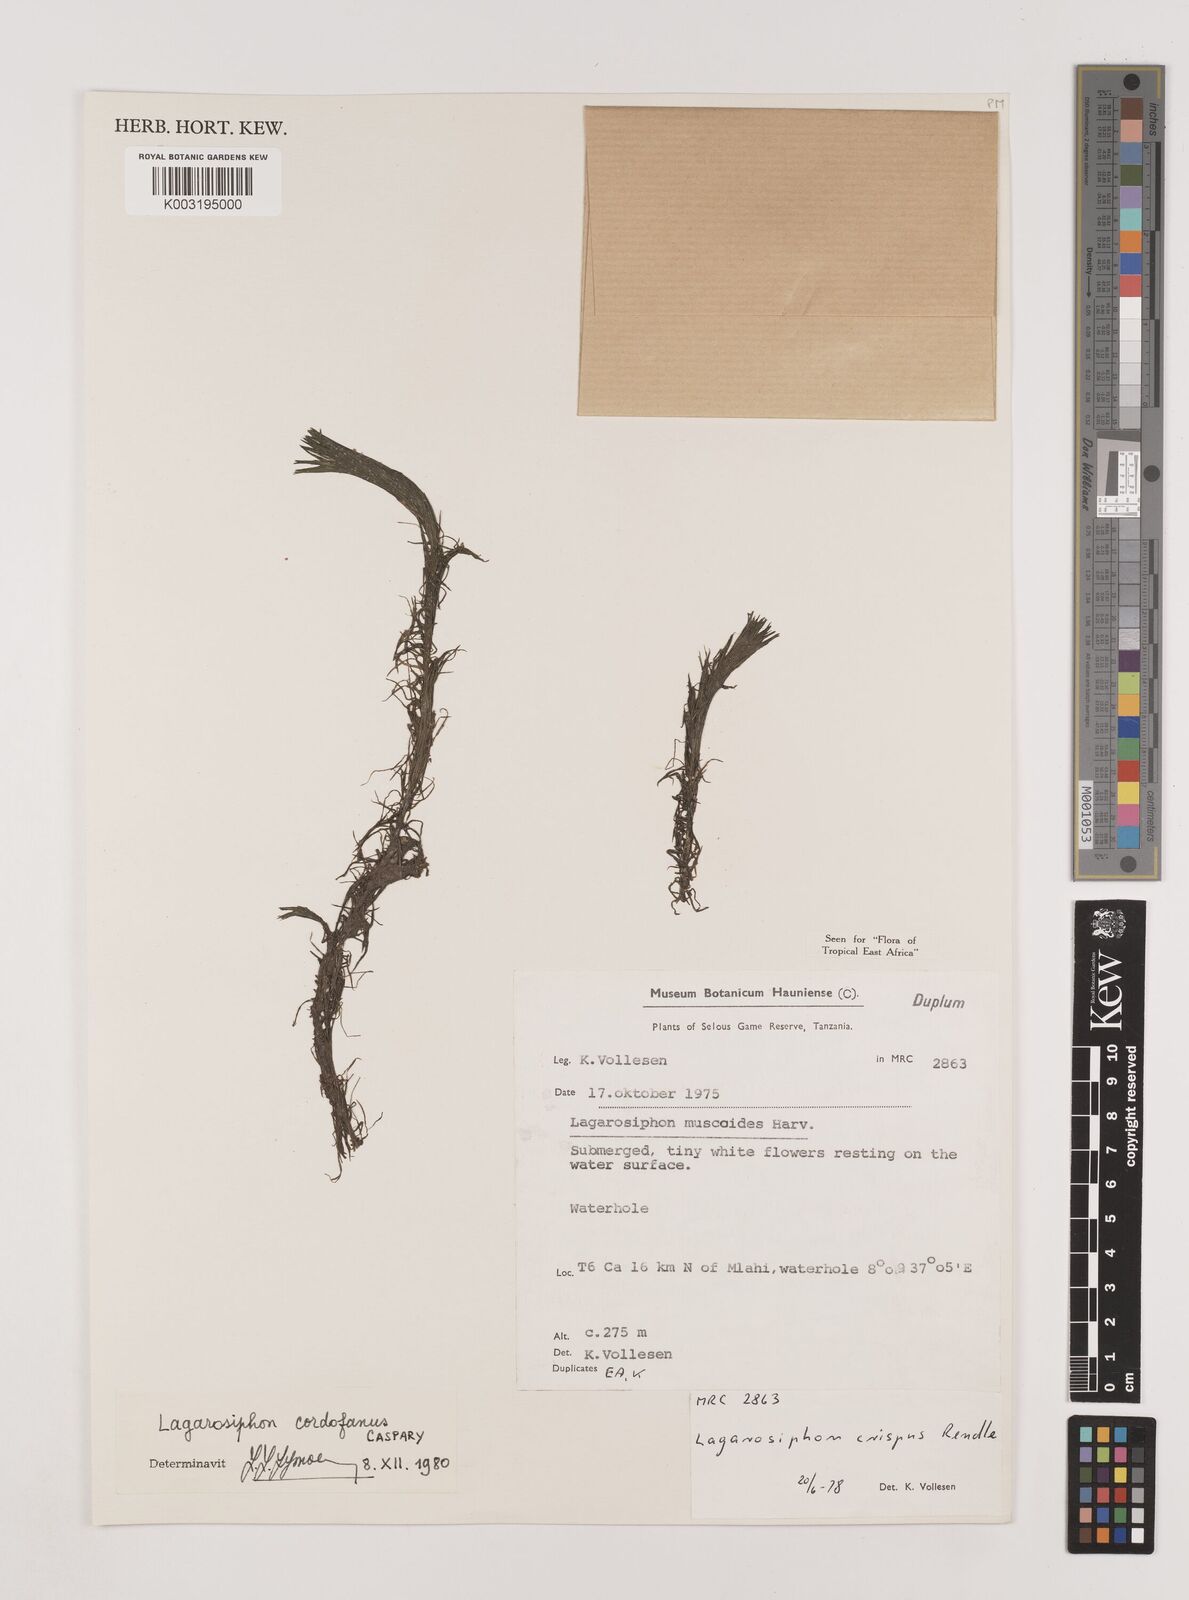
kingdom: Plantae
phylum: Tracheophyta
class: Liliopsida
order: Alismatales
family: Hydrocharitaceae
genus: Lagarosiphon
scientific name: Lagarosiphon cordofanus
